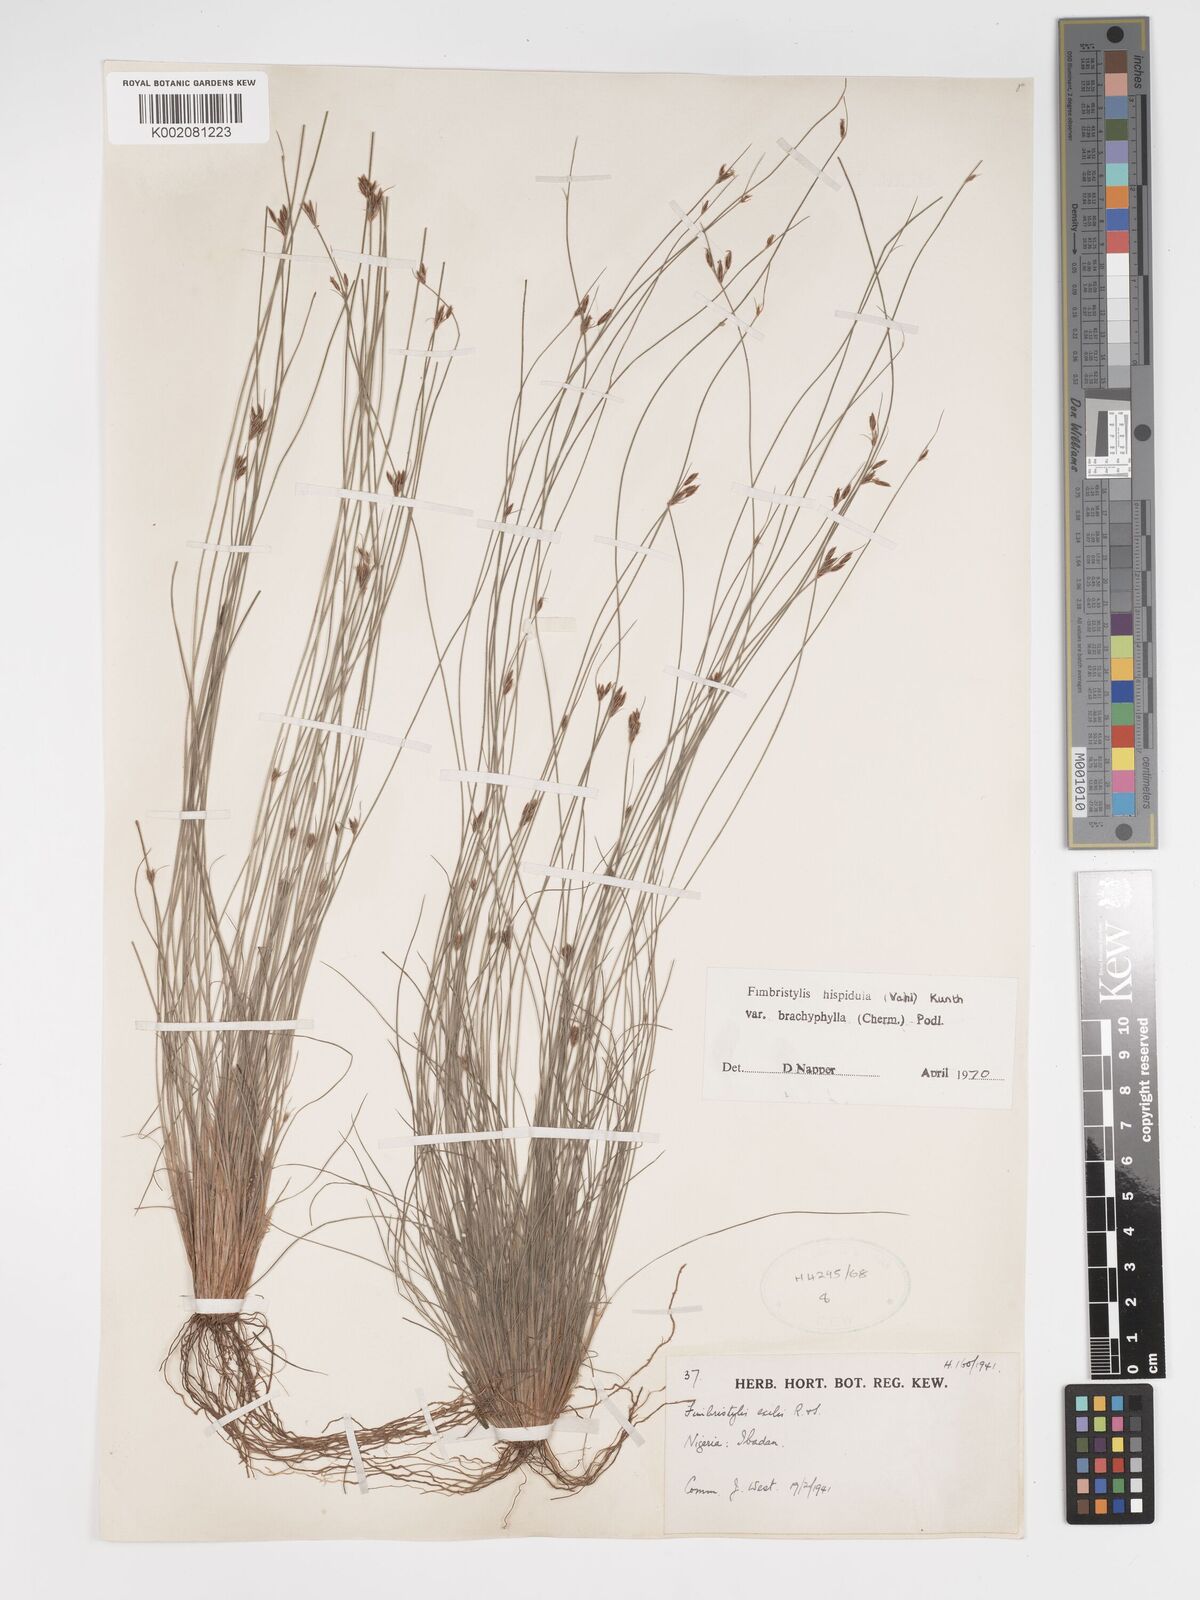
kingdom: Plantae
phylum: Tracheophyta
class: Liliopsida
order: Poales
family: Cyperaceae
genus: Bulbostylis
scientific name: Bulbostylis hispidula
